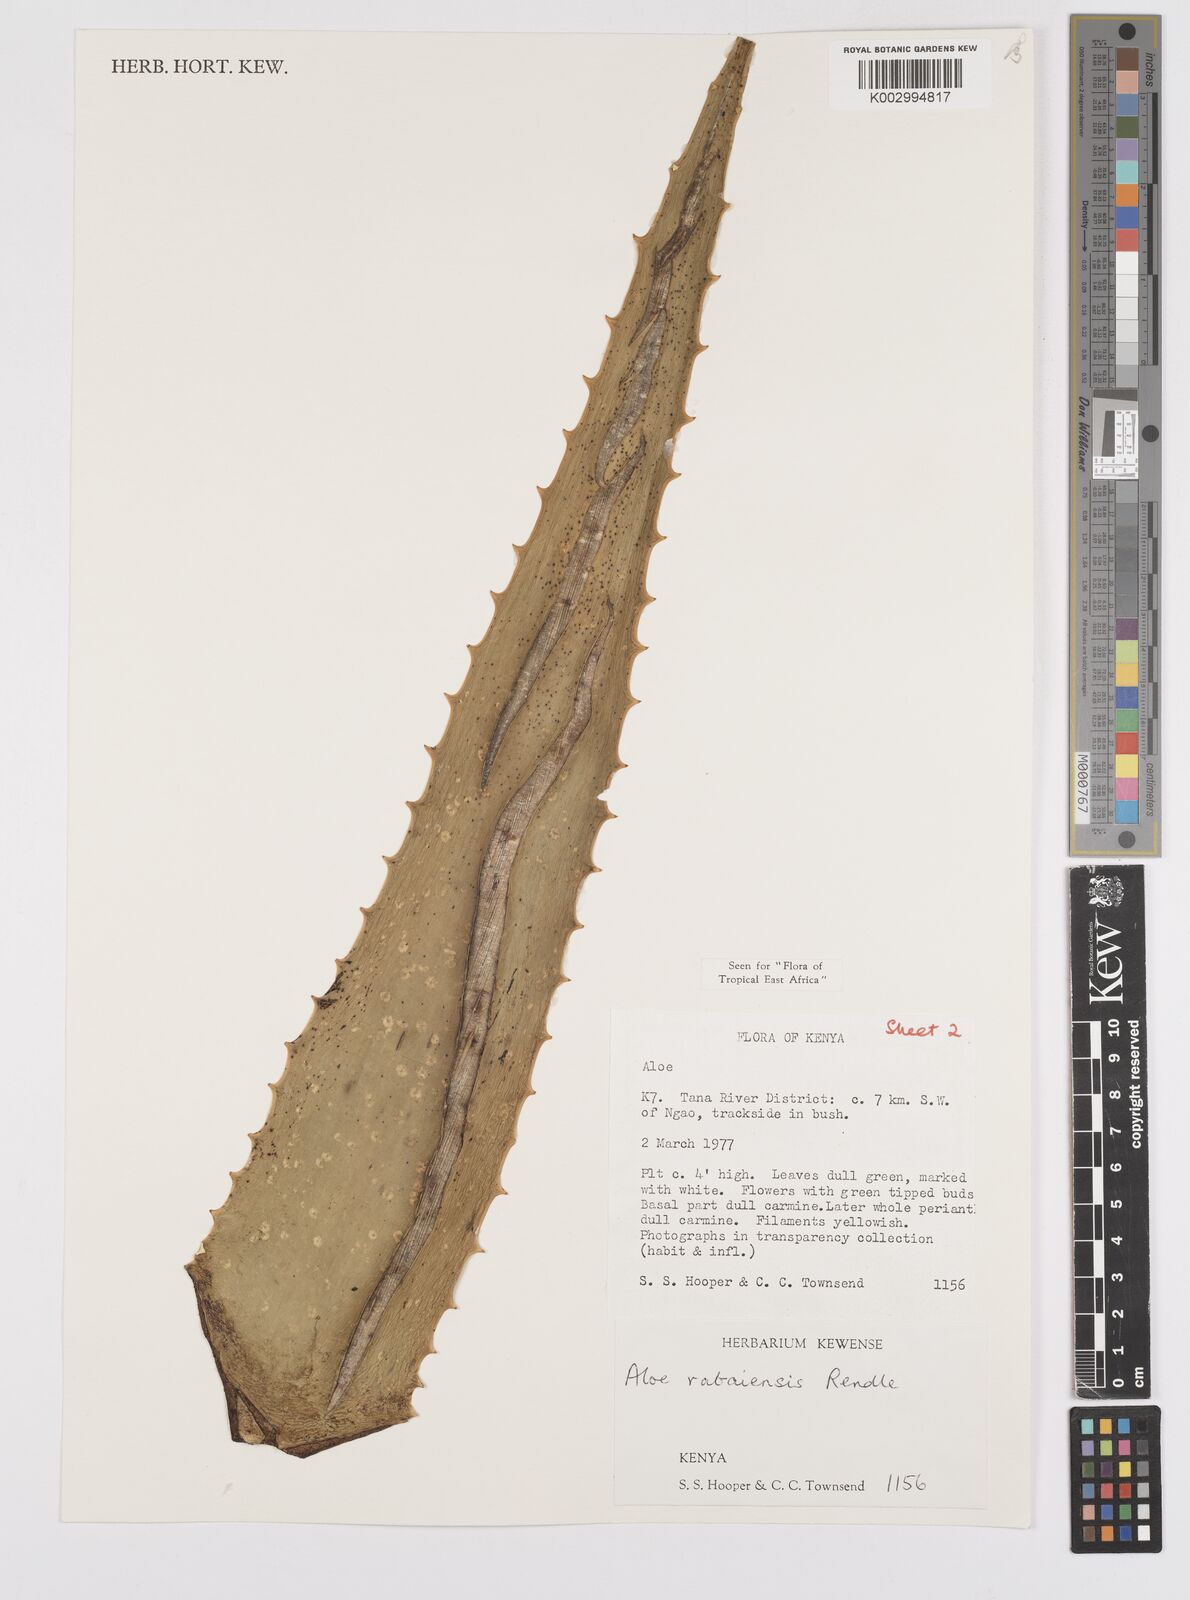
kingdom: Plantae
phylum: Tracheophyta
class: Liliopsida
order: Asparagales
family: Asphodelaceae
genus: Aloe
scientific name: Aloe rabaiensis
